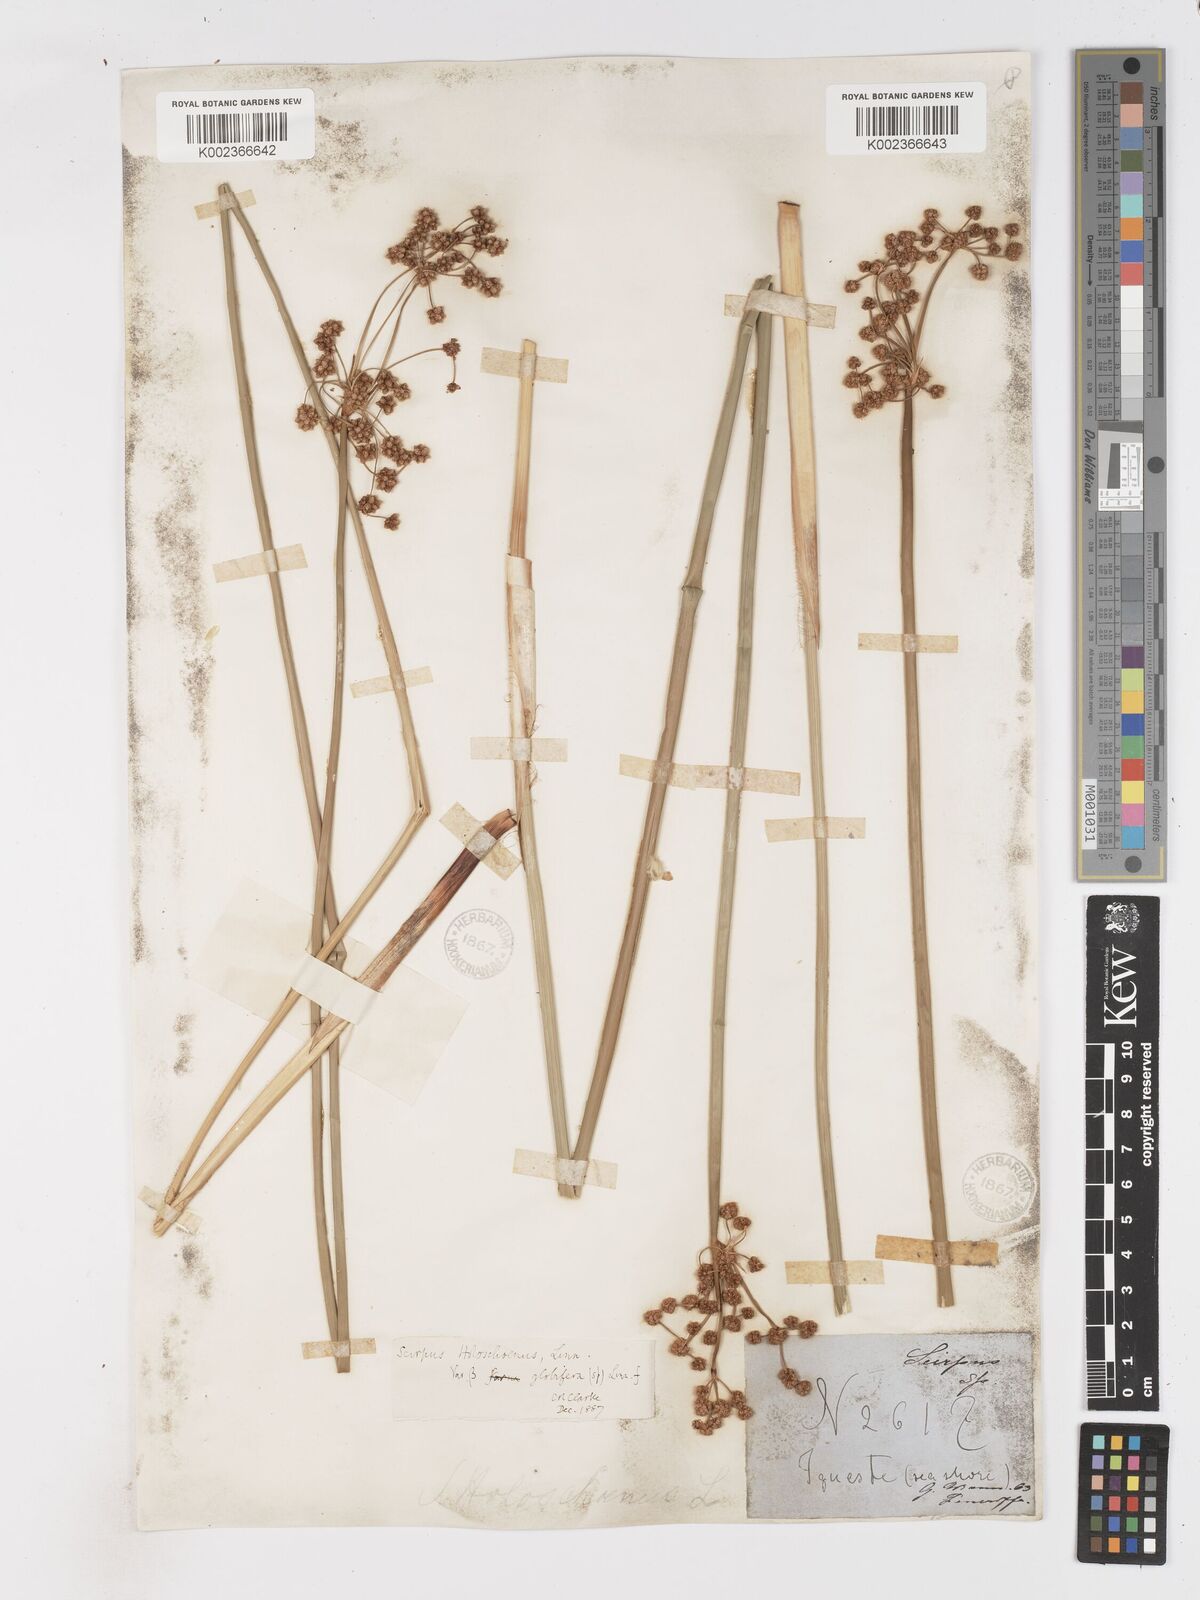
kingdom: Plantae
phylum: Tracheophyta
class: Liliopsida
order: Poales
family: Cyperaceae
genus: Scirpoides
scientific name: Scirpoides holoschoenus
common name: Round-headed club-rush
